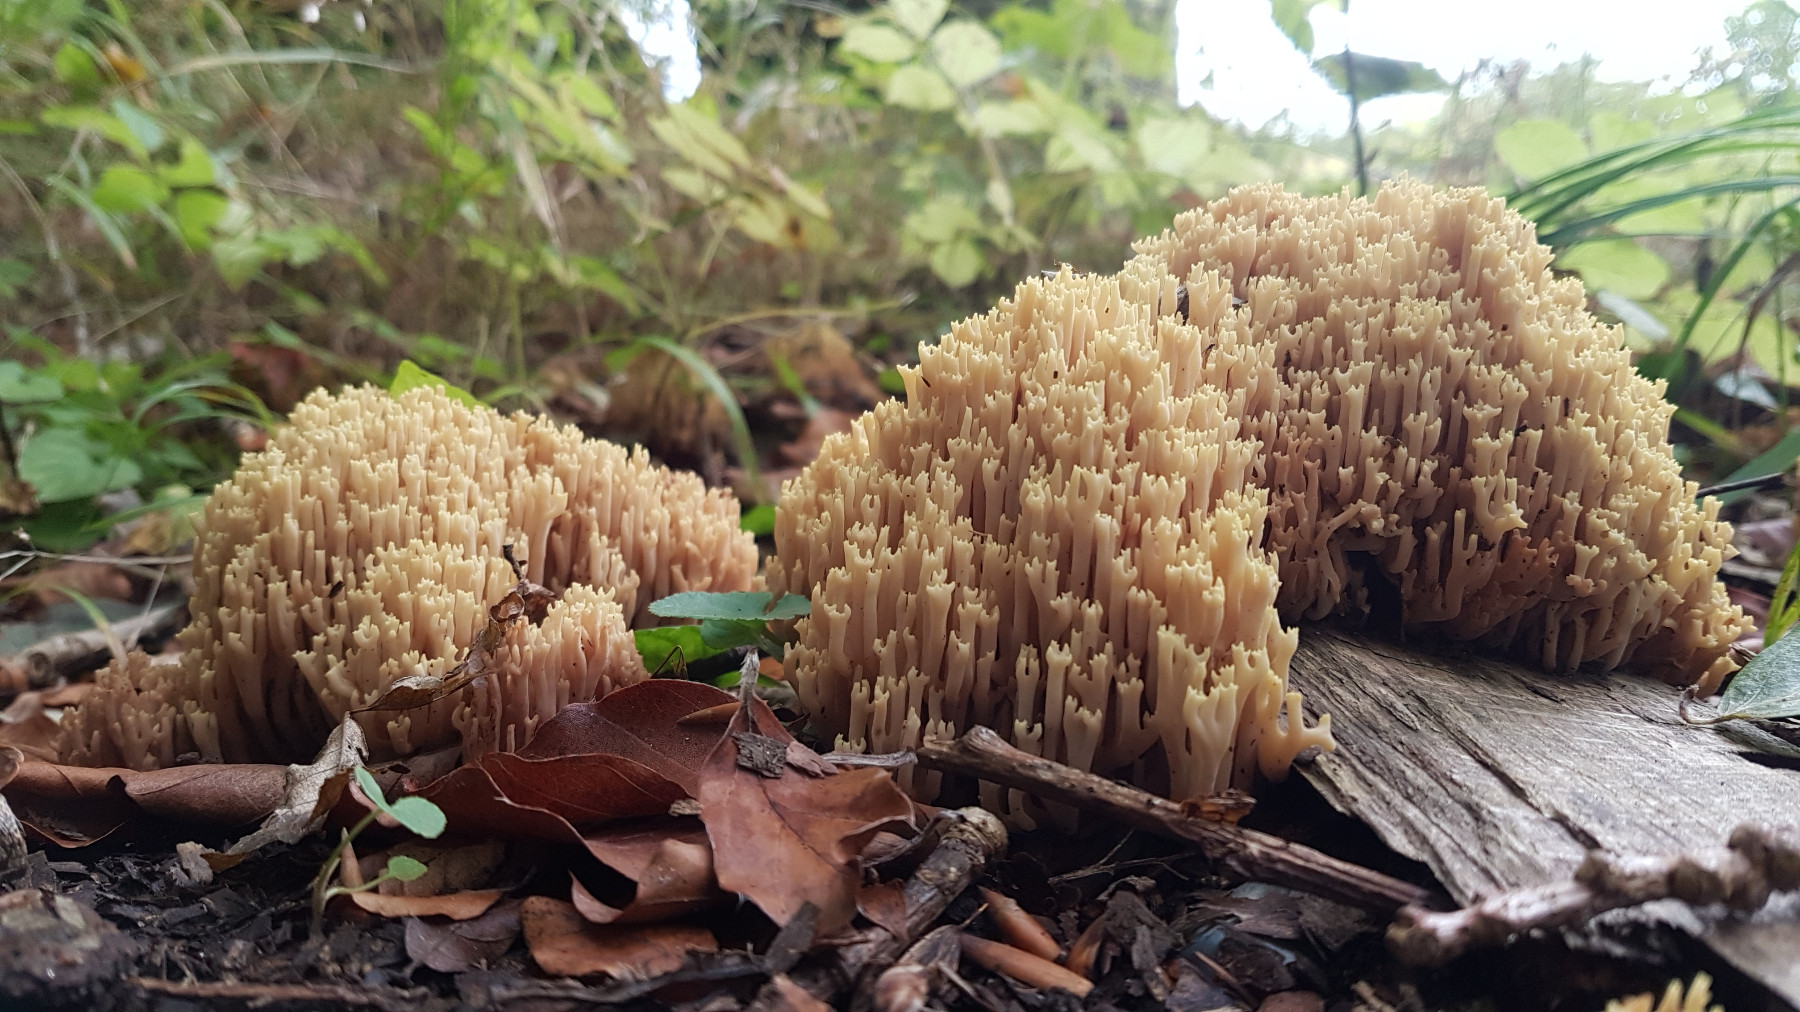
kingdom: Fungi
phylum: Basidiomycota
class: Agaricomycetes
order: Gomphales
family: Gomphaceae
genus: Ramaria
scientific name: Ramaria stricta
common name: rank koralsvamp
